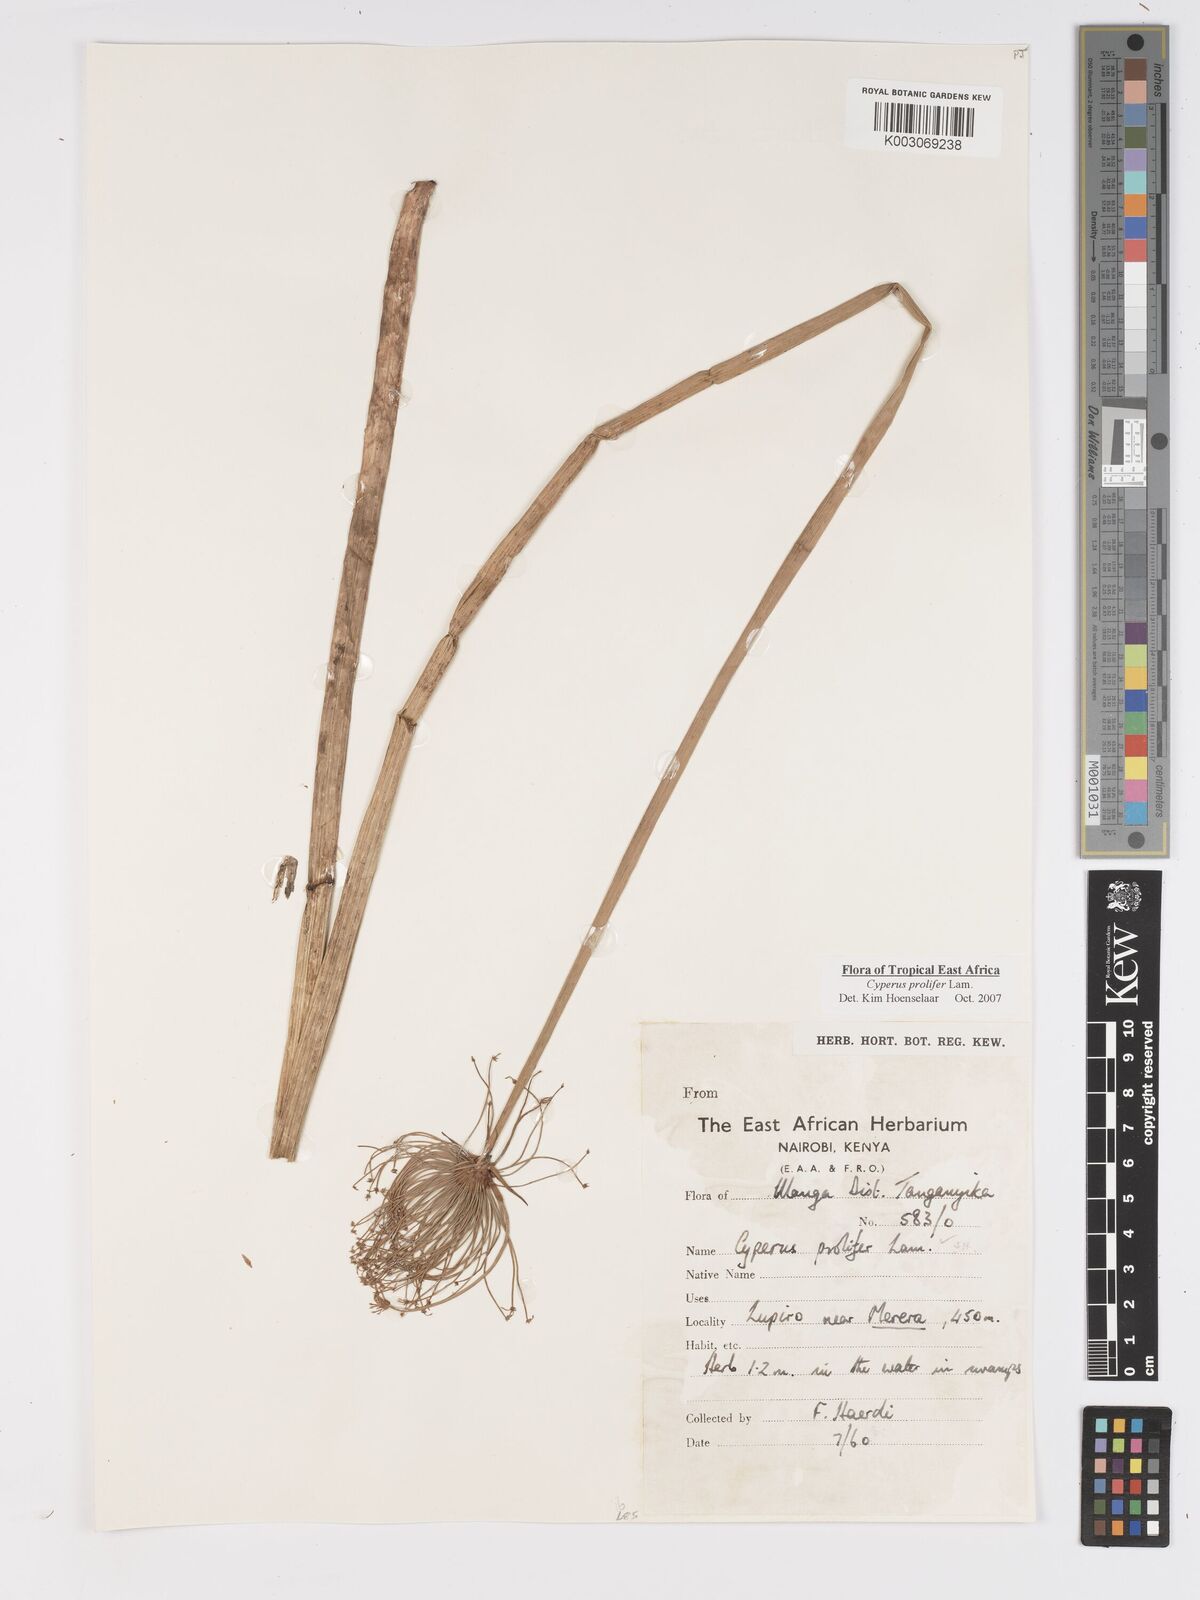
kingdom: Plantae
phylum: Tracheophyta
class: Liliopsida
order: Poales
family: Cyperaceae
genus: Cyperus
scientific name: Cyperus prolifer
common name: Miniature flatsedge
